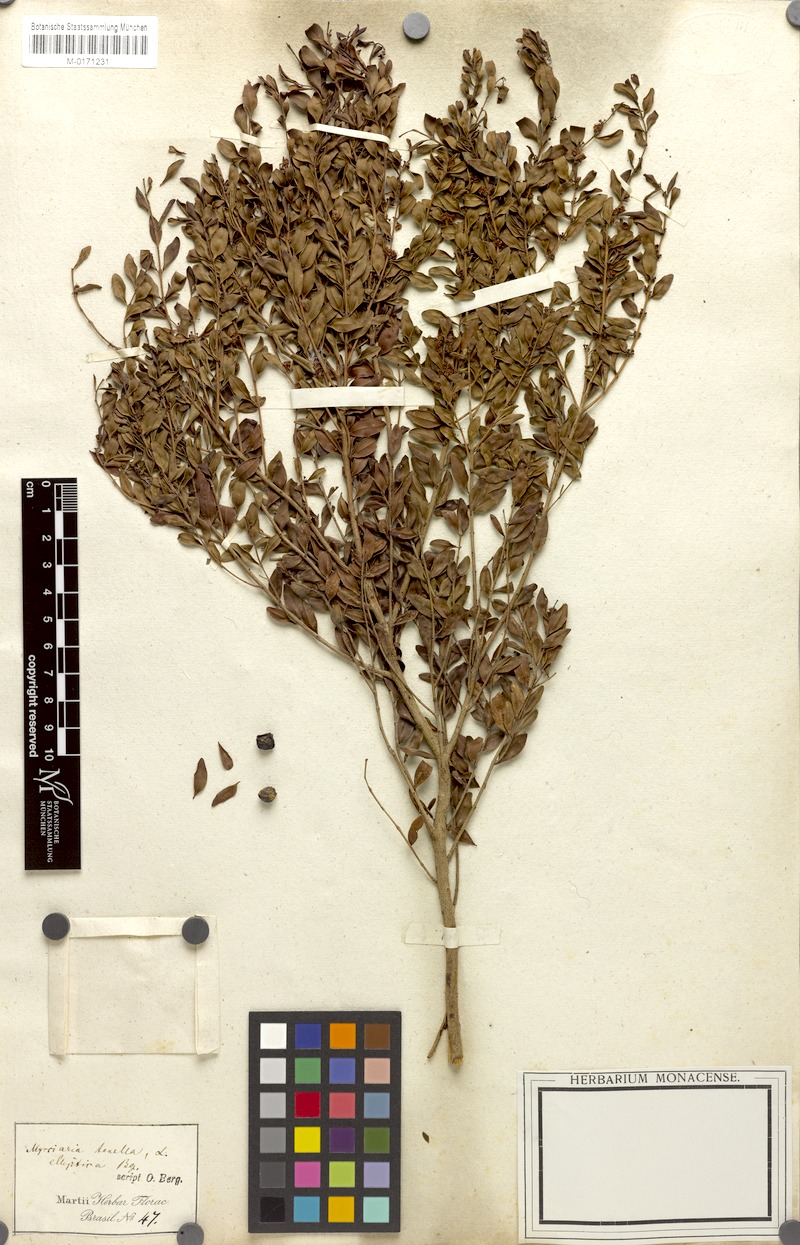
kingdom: Plantae
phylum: Tracheophyta
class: Magnoliopsida
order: Myrtales
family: Myrtaceae
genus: Myrciaria
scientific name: Myrciaria tenella
